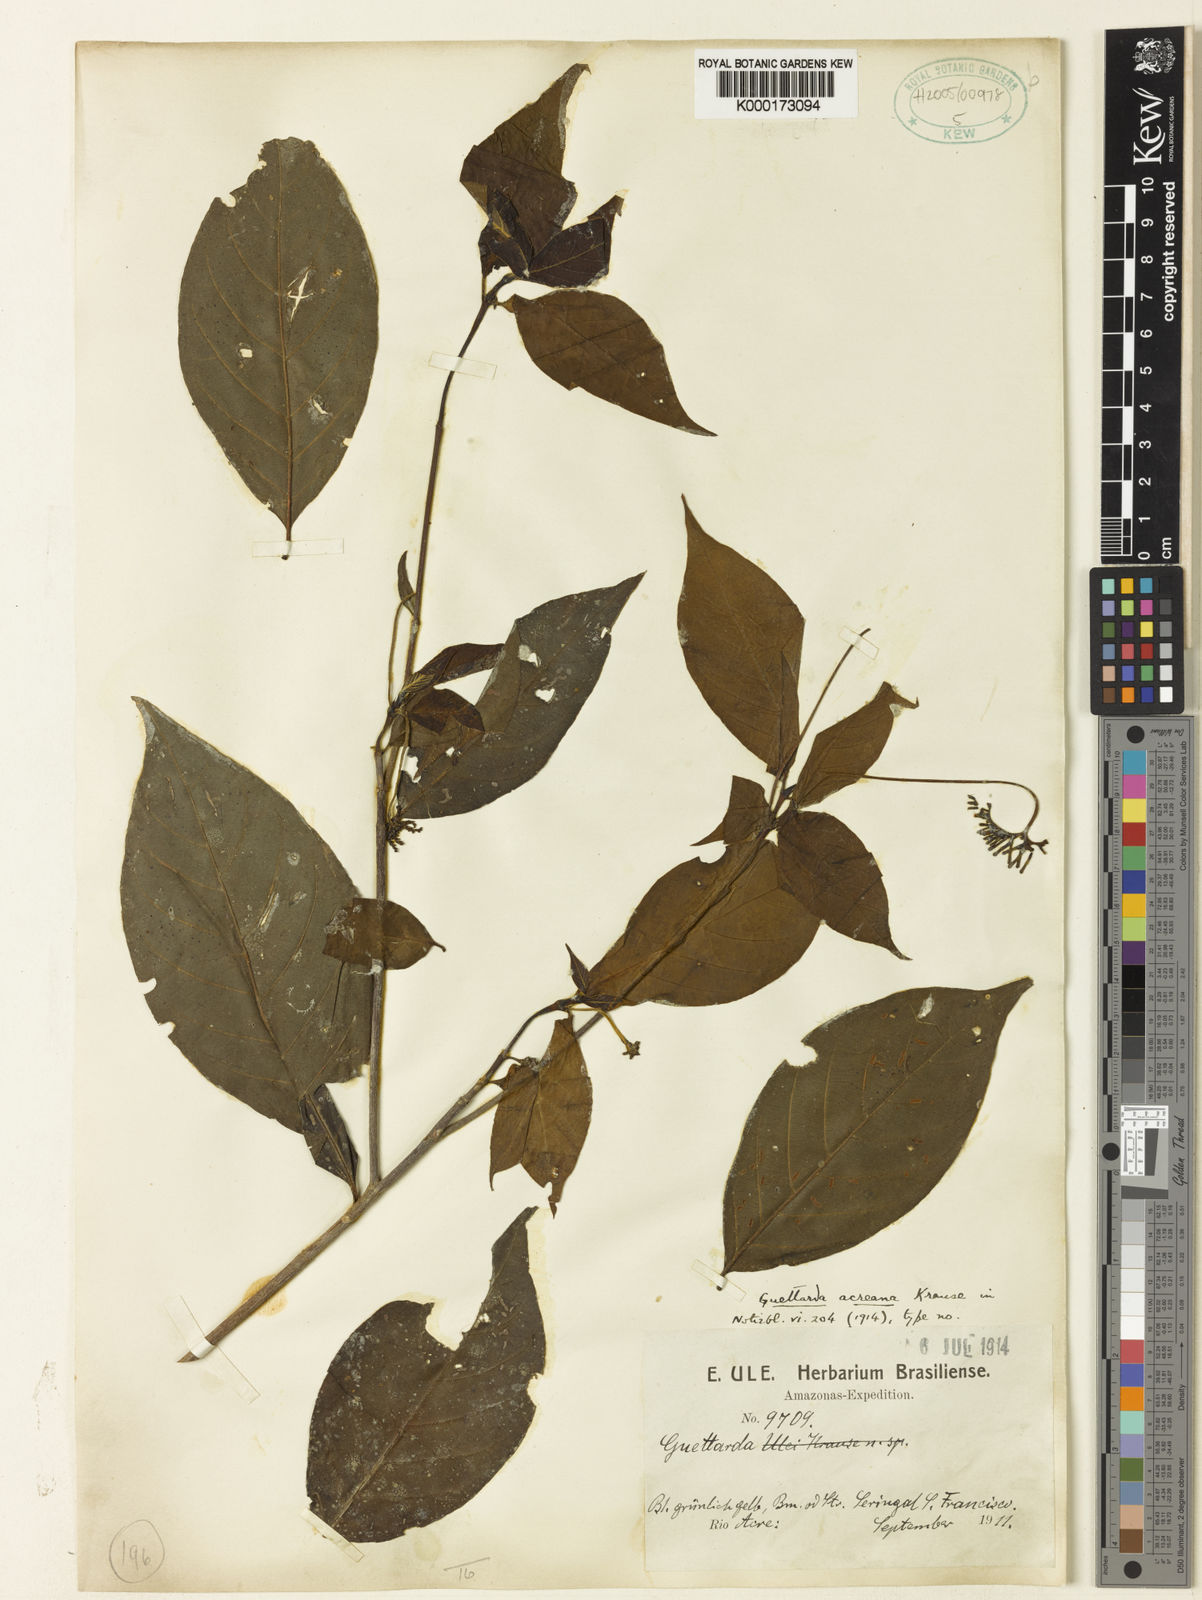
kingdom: Plantae
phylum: Tracheophyta
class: Magnoliopsida
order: Gentianales
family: Rubiaceae
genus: Stenostomum
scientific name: Stenostomum
